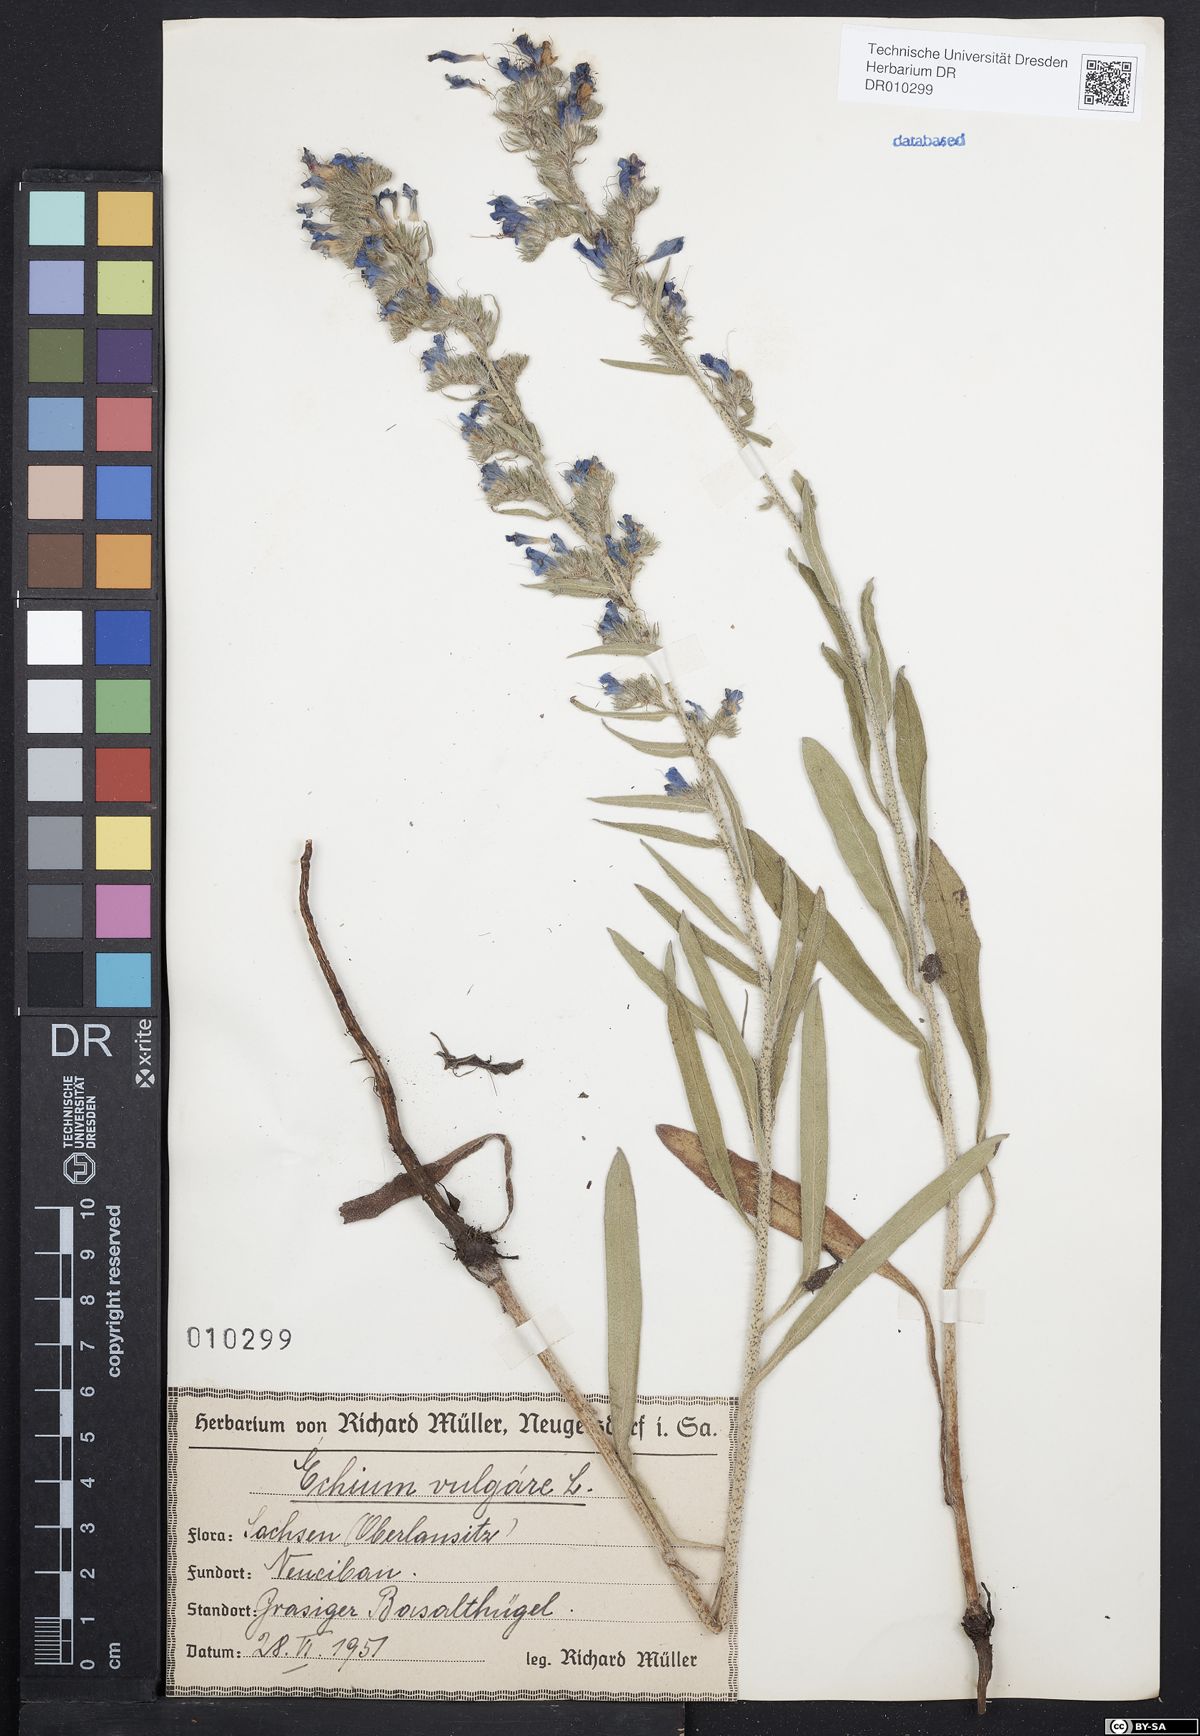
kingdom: Plantae
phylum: Tracheophyta
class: Magnoliopsida
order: Boraginales
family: Boraginaceae
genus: Echium
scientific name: Echium vulgare
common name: Common viper's bugloss
